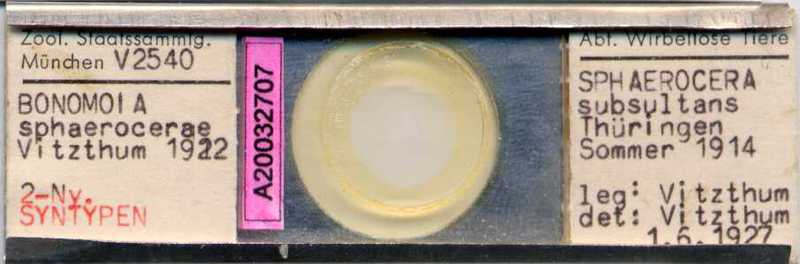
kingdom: Animalia
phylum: Arthropoda
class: Arachnida
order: Sarcoptiformes
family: Histiostomatidae
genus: Capronomoia
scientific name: Capronomoia sphaerocerae
